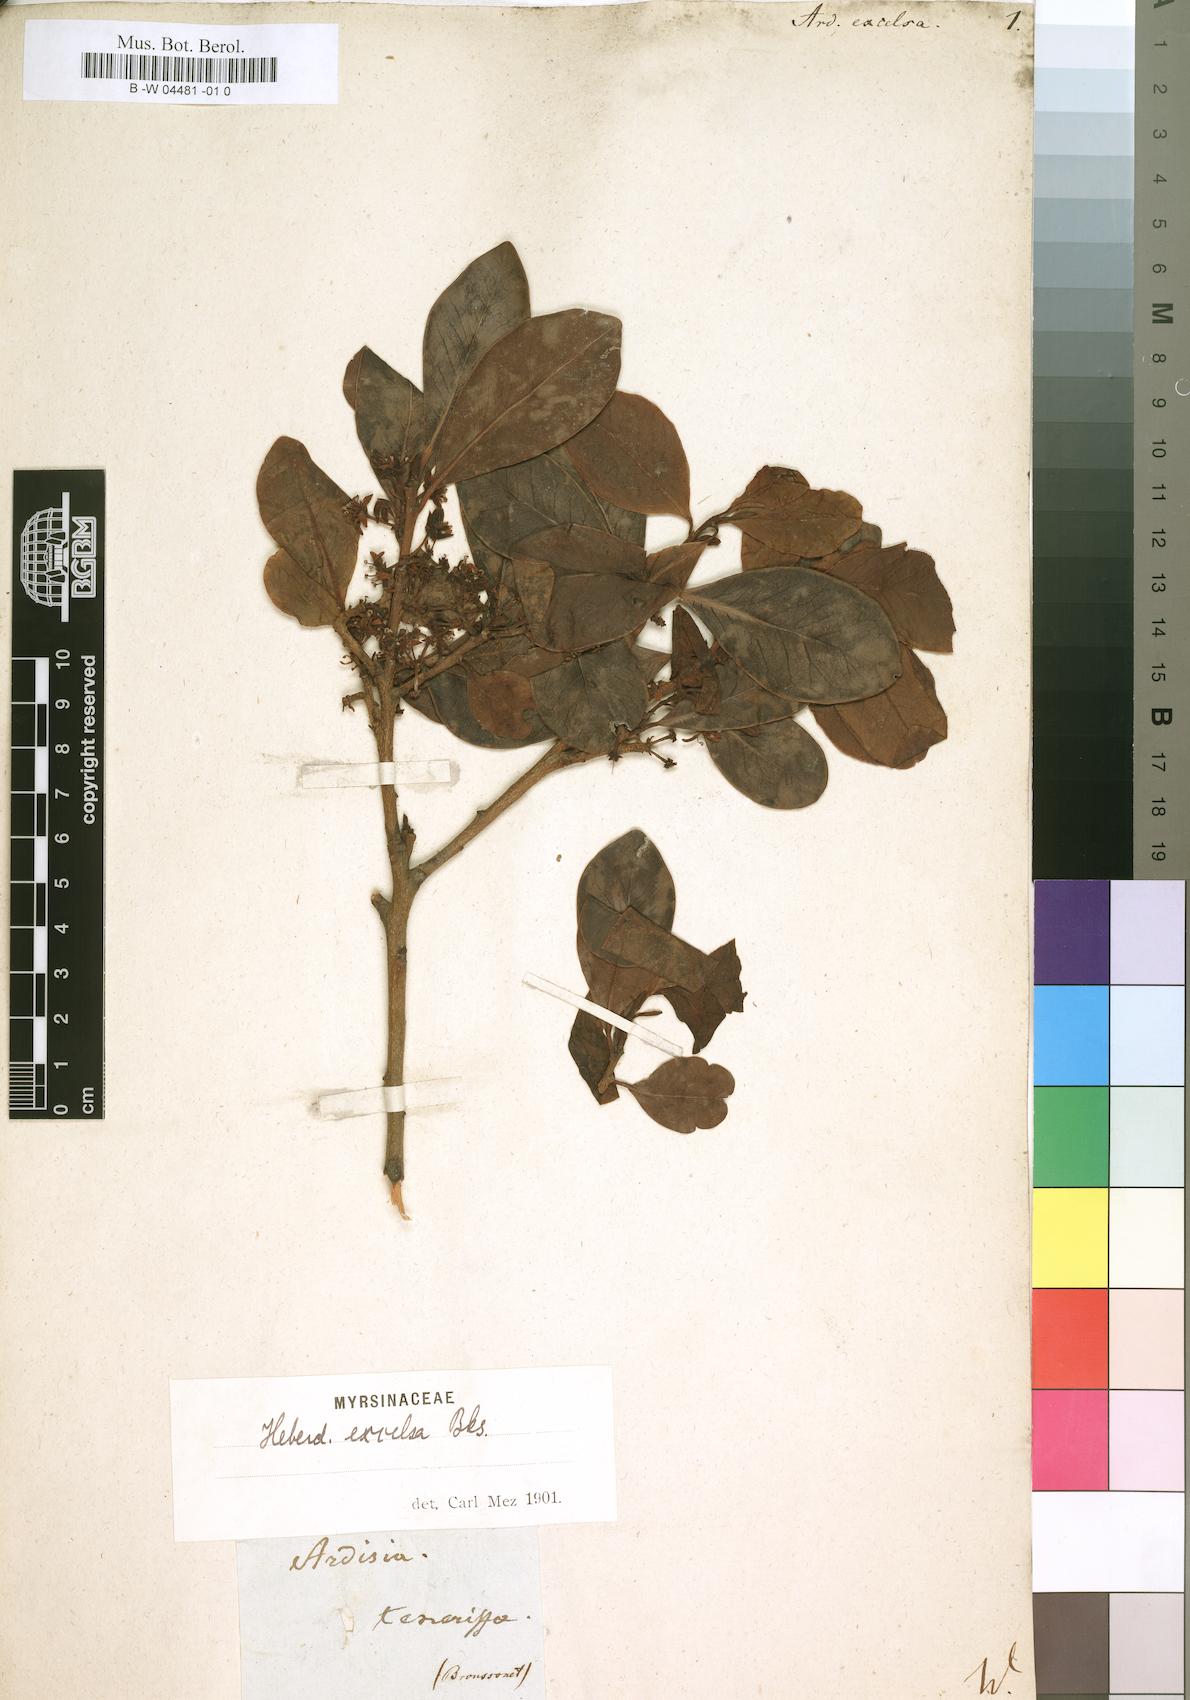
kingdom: Plantae
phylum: Tracheophyta
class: Magnoliopsida
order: Ericales
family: Primulaceae
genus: Heberdenia
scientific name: Heberdenia excelsa
